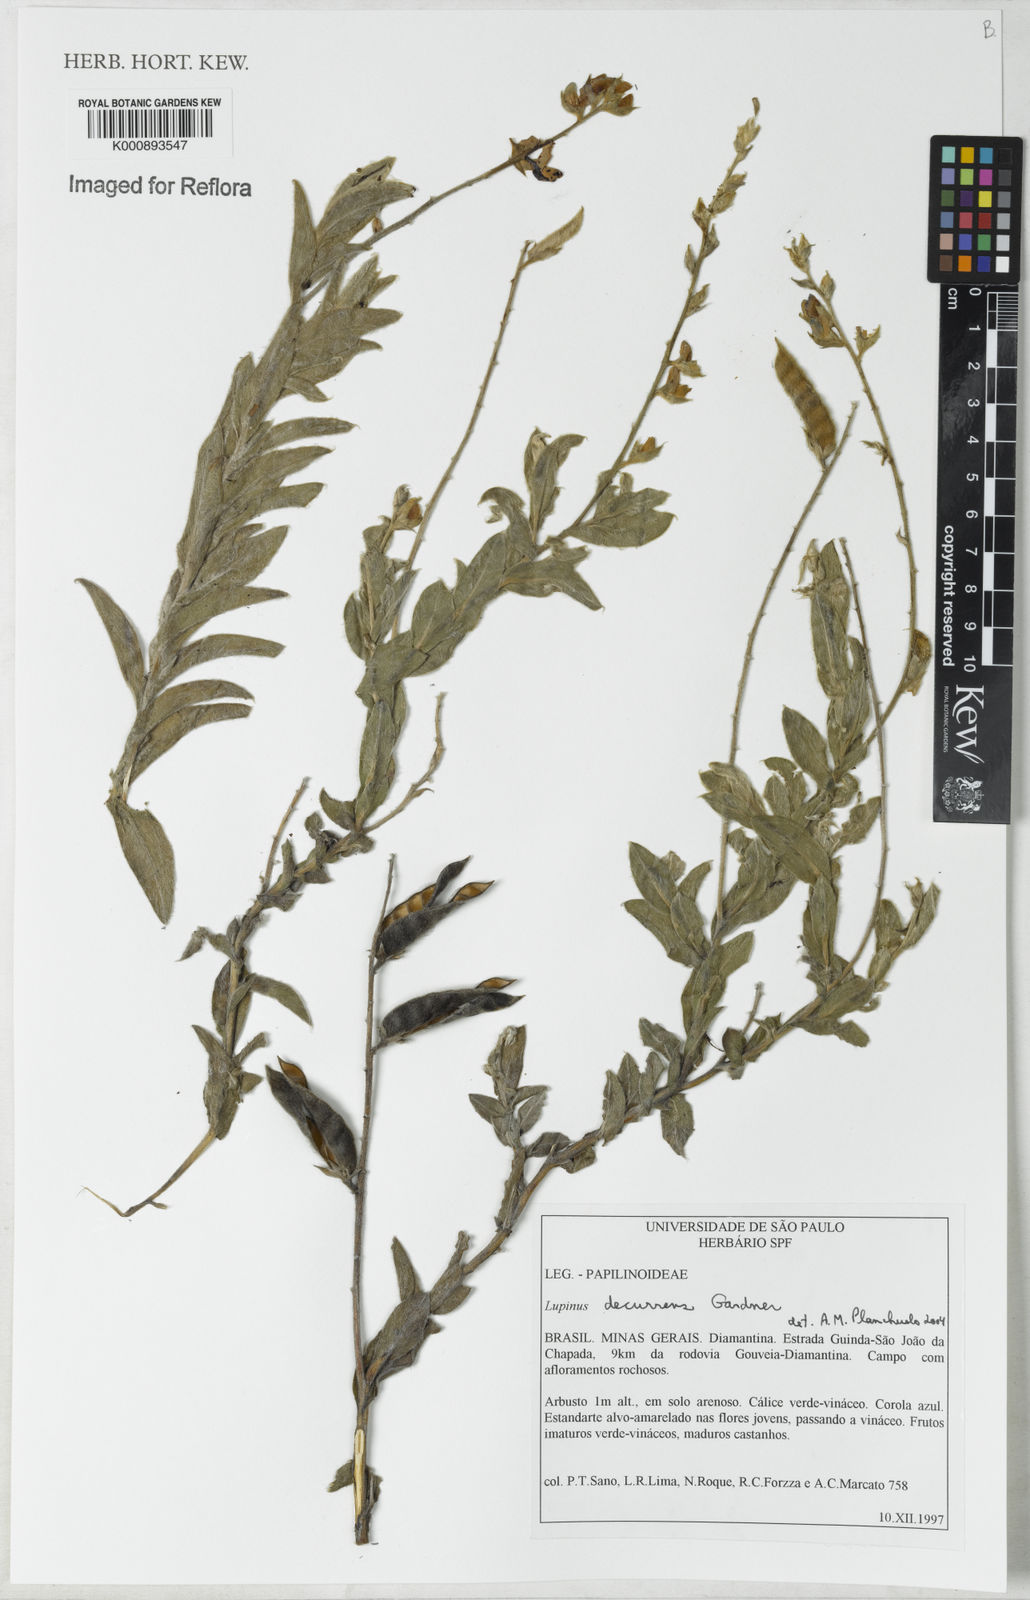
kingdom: Plantae
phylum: Tracheophyta
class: Magnoliopsida
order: Fabales
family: Fabaceae
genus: Lupinus
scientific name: Lupinus decurrens
